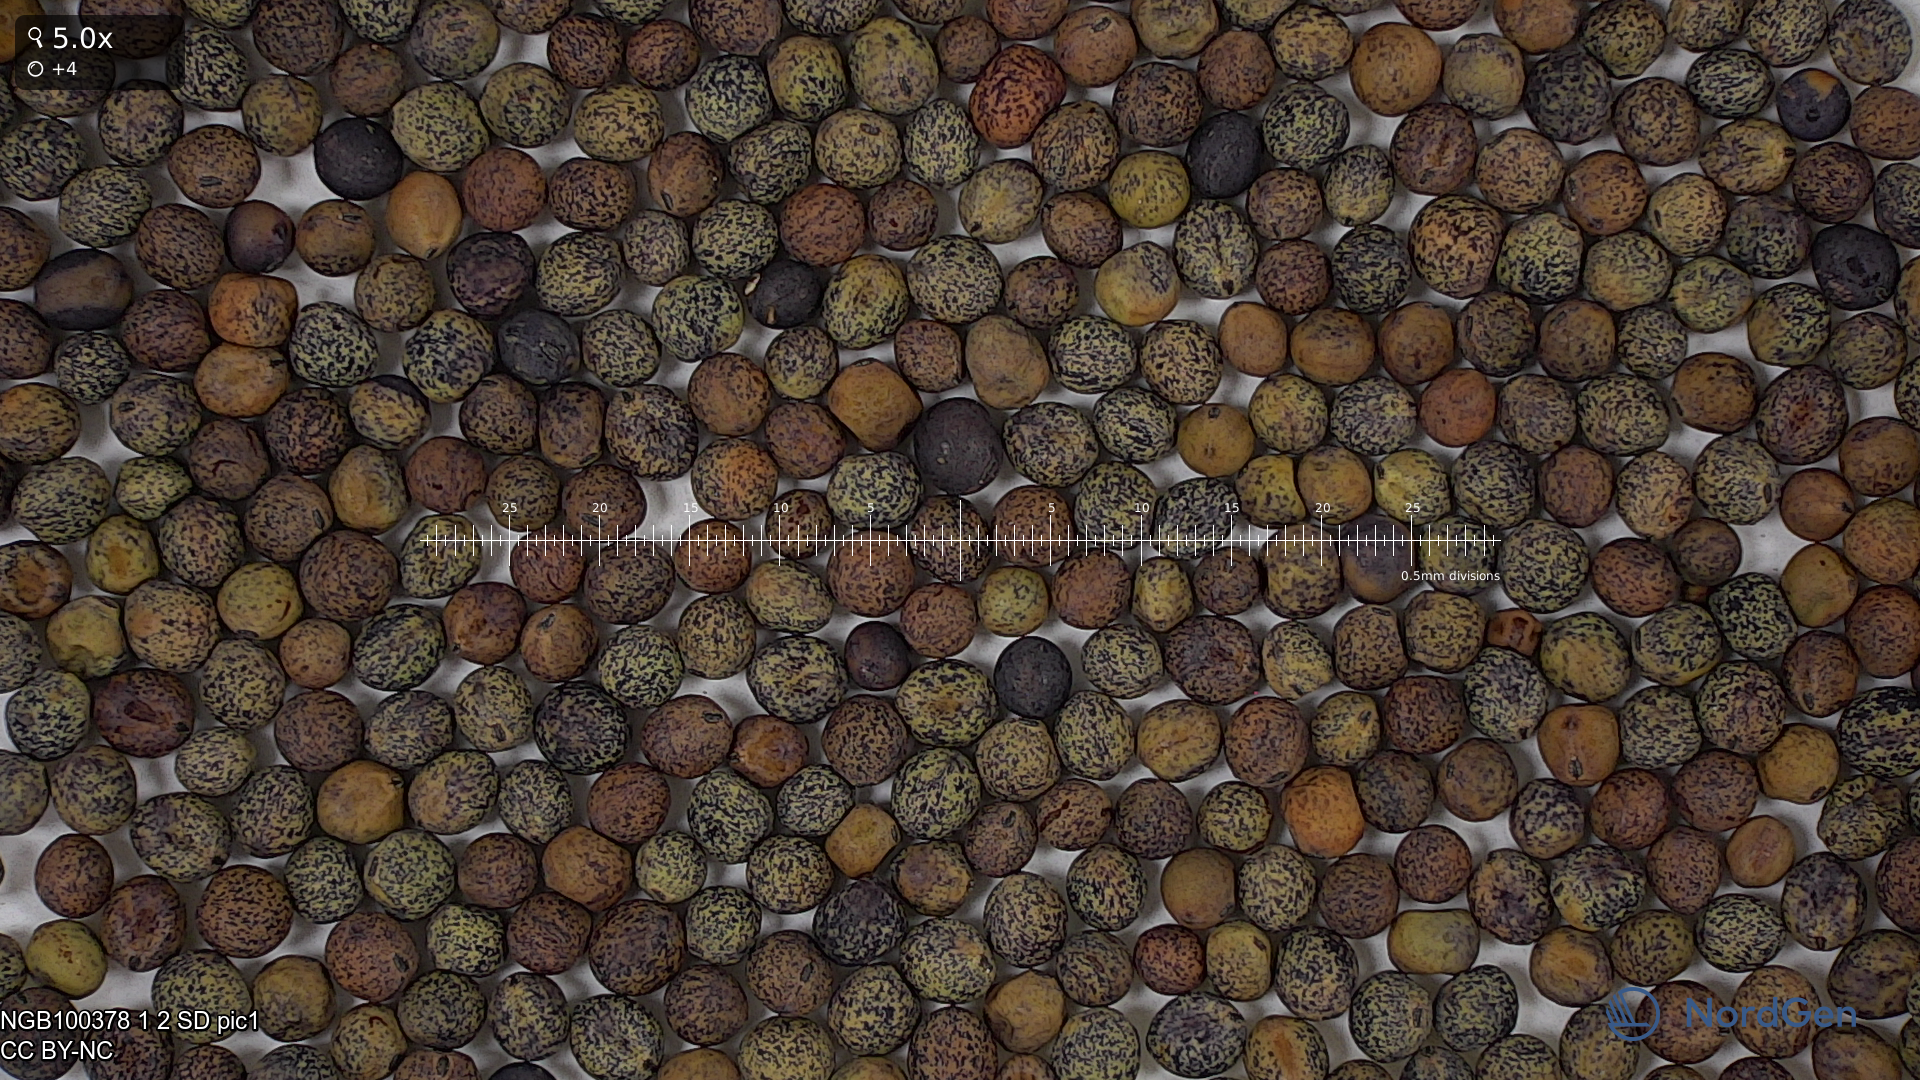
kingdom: Plantae
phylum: Tracheophyta
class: Magnoliopsida
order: Fabales
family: Fabaceae
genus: Lathyrus
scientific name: Lathyrus oleraceus
